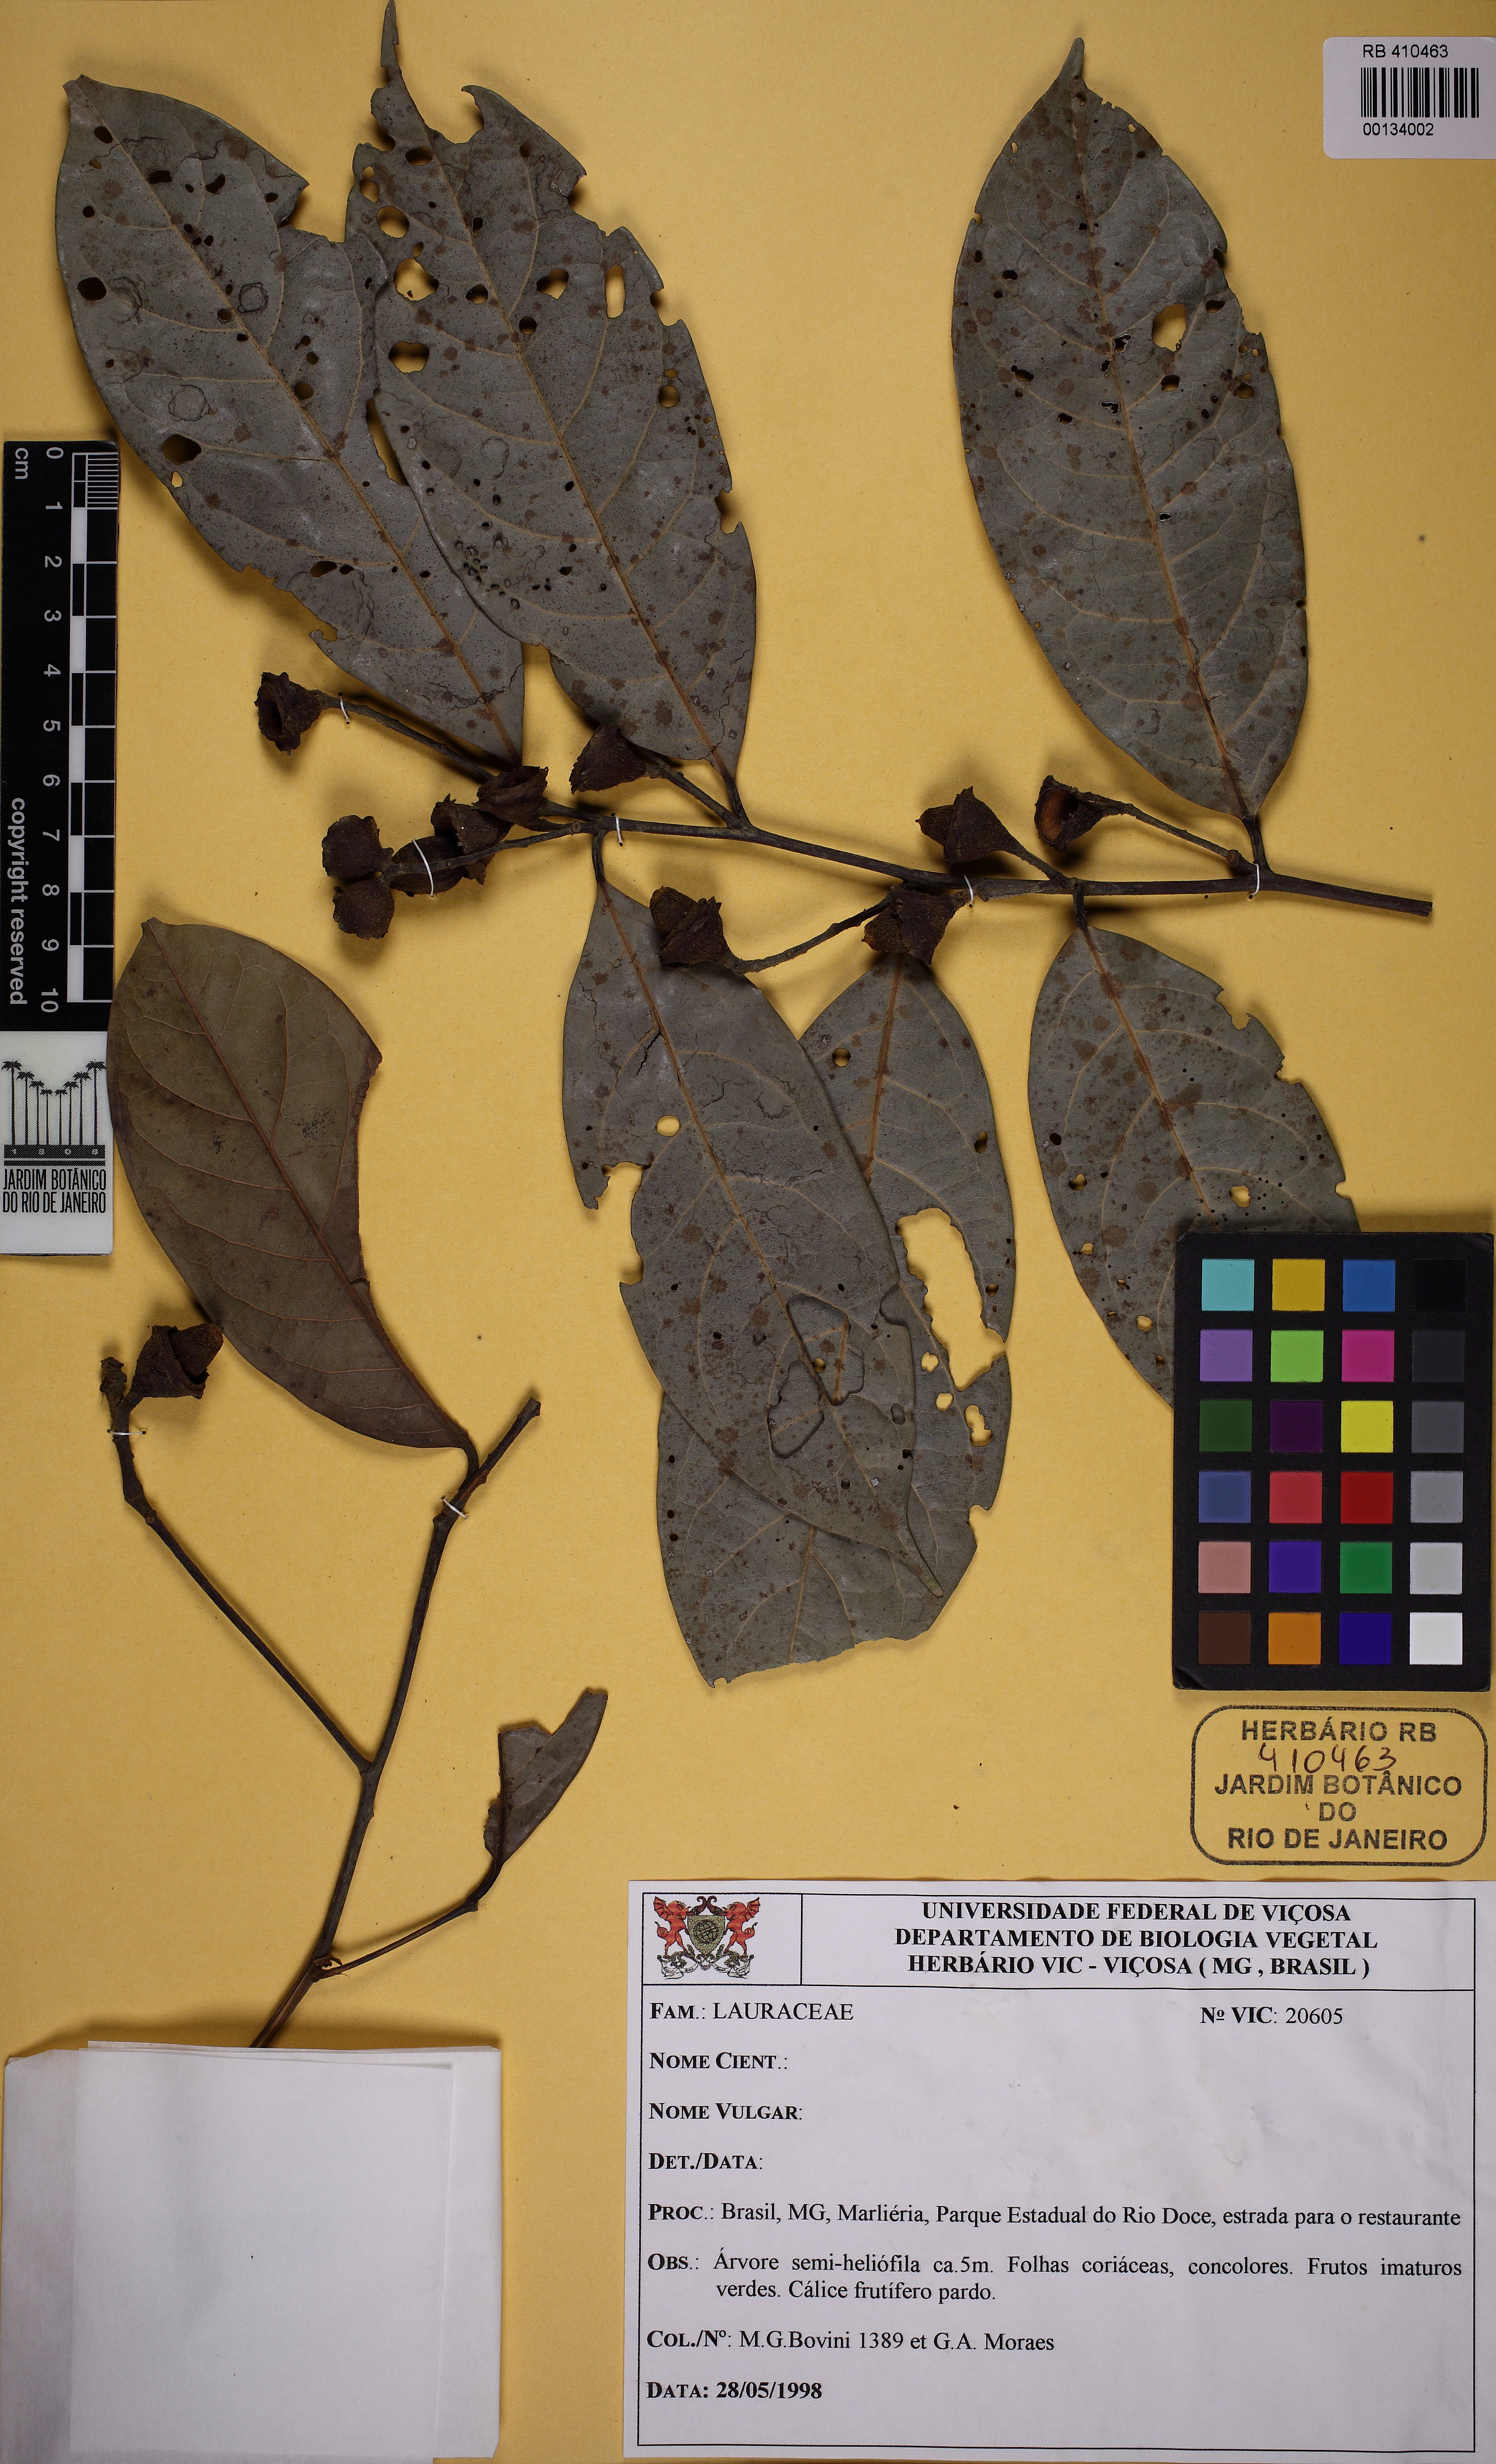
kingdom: Plantae
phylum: Tracheophyta
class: Magnoliopsida
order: Laurales
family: Lauraceae
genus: Ocotea
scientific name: Ocotea cujumary
